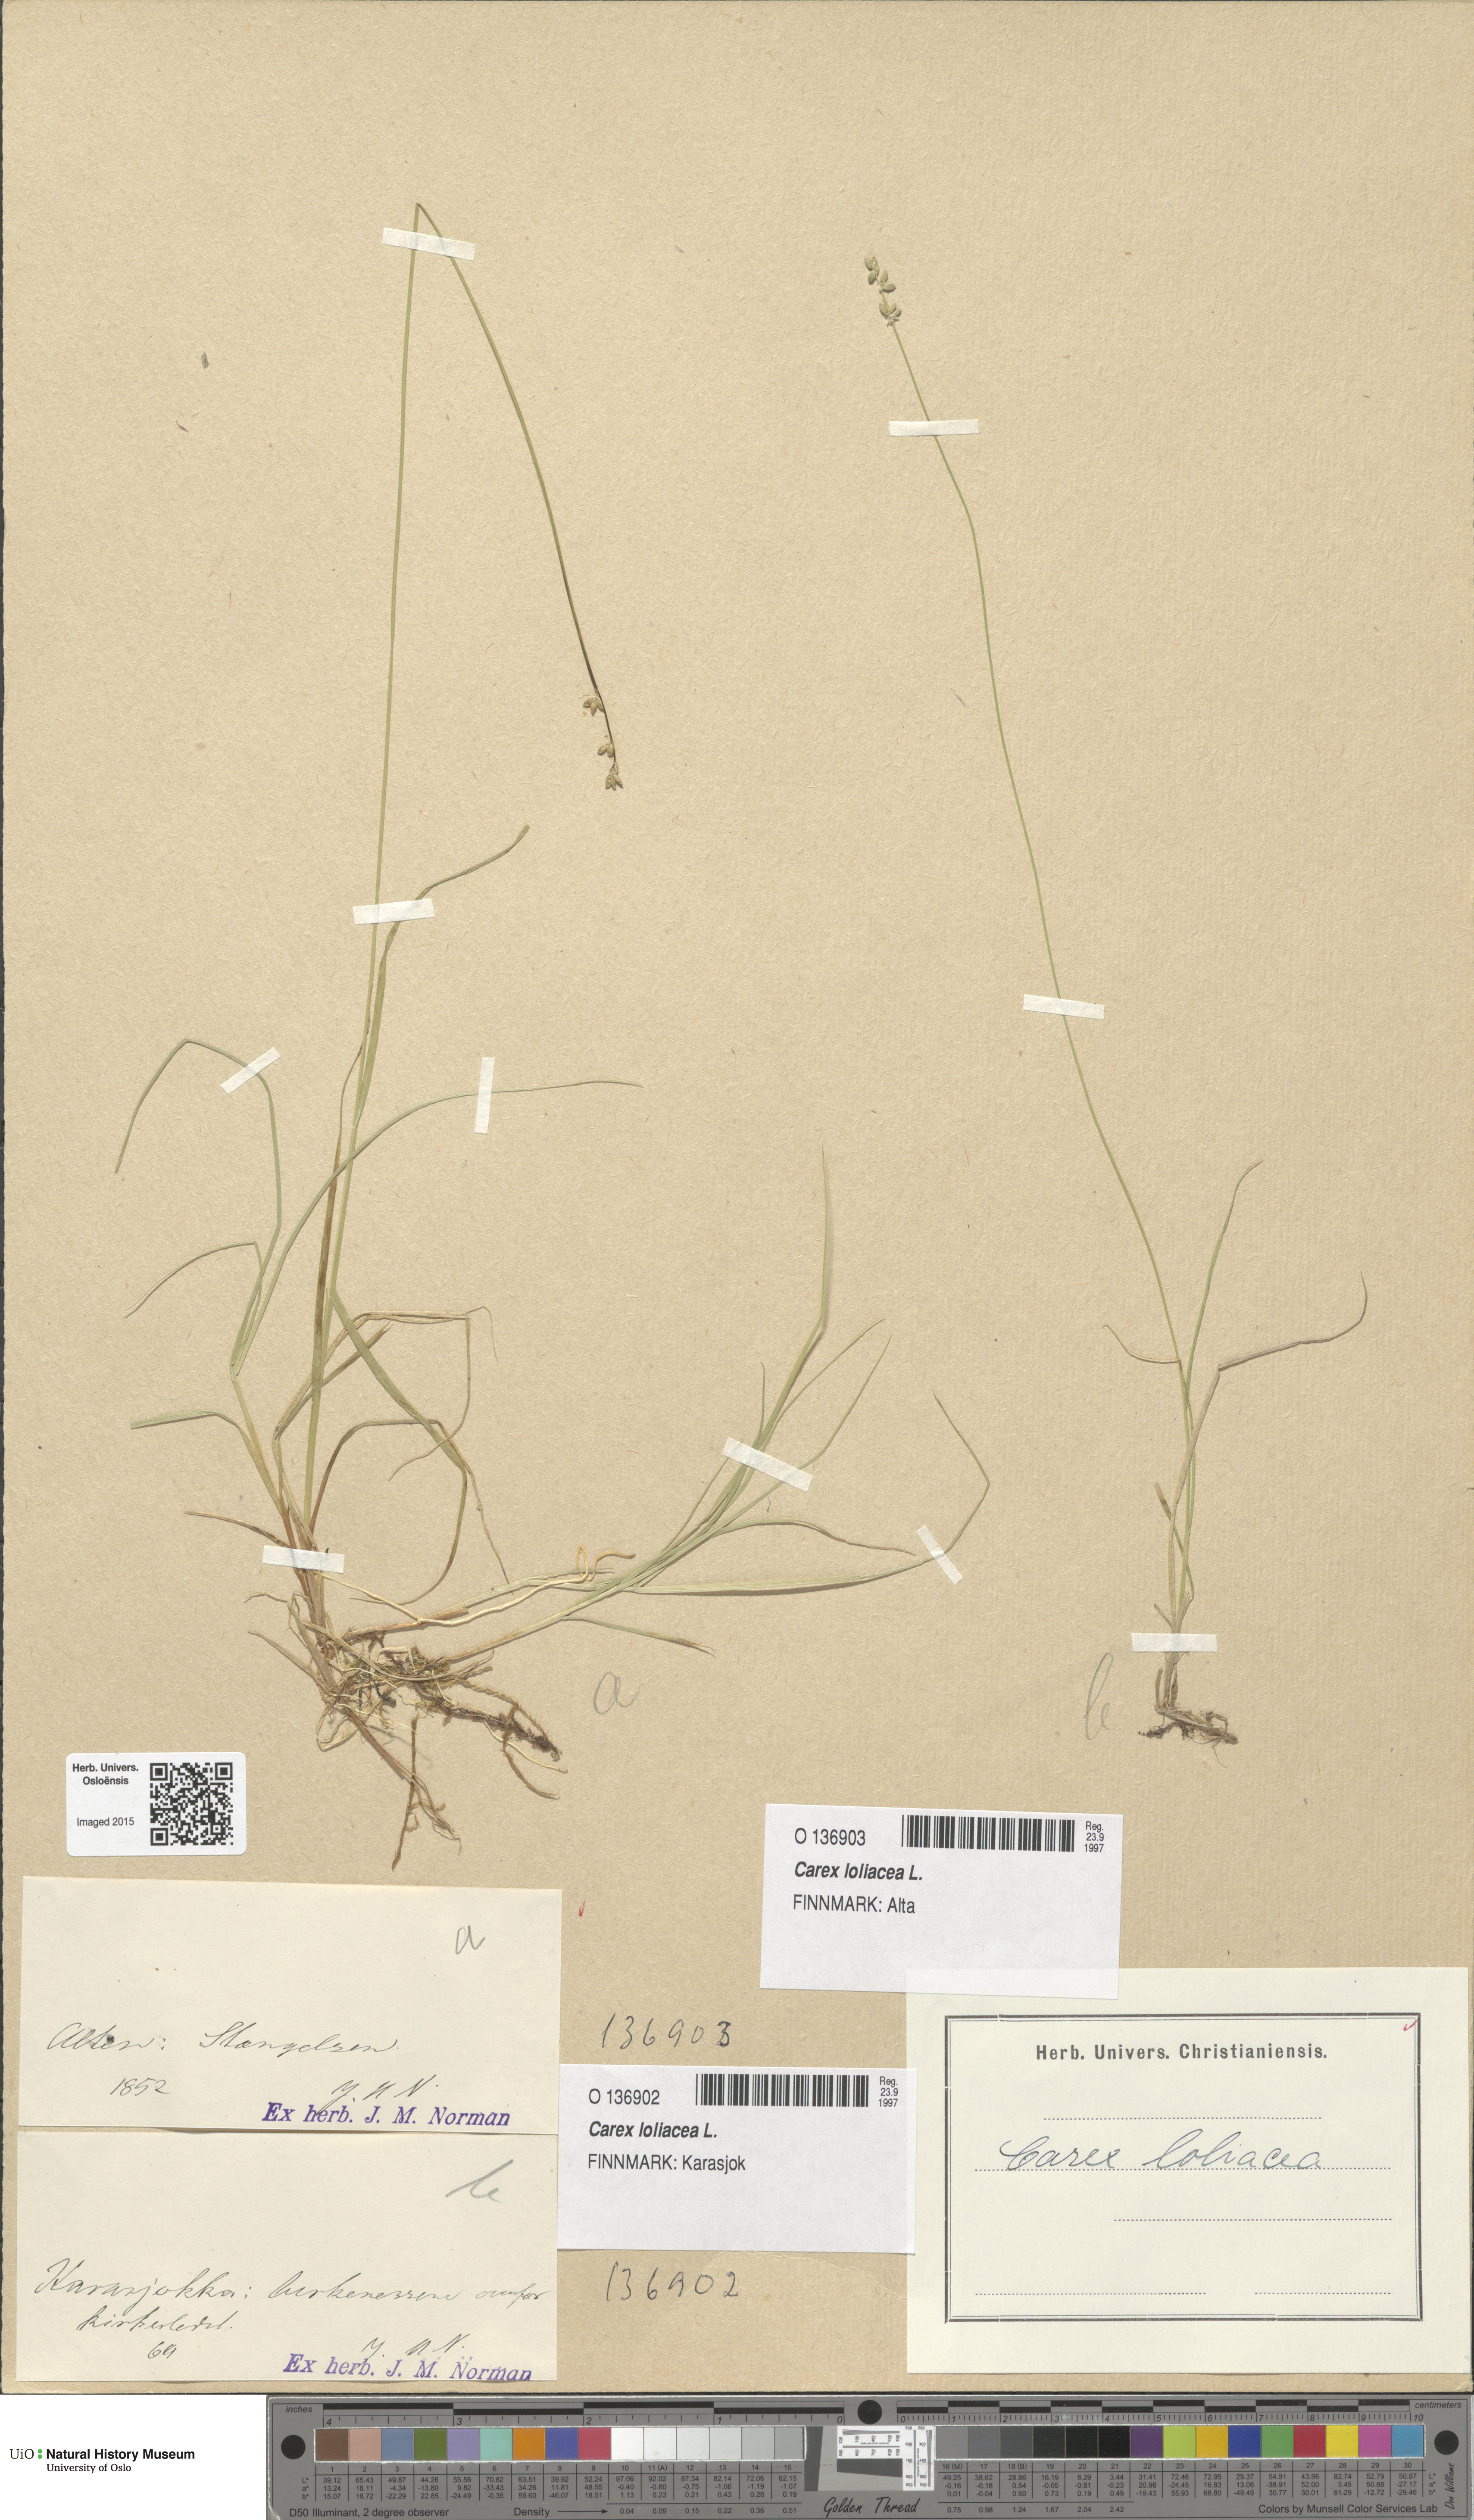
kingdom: Plantae
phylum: Tracheophyta
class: Liliopsida
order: Poales
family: Cyperaceae
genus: Carex
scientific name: Carex loliacea
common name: Ryegrass sedge
